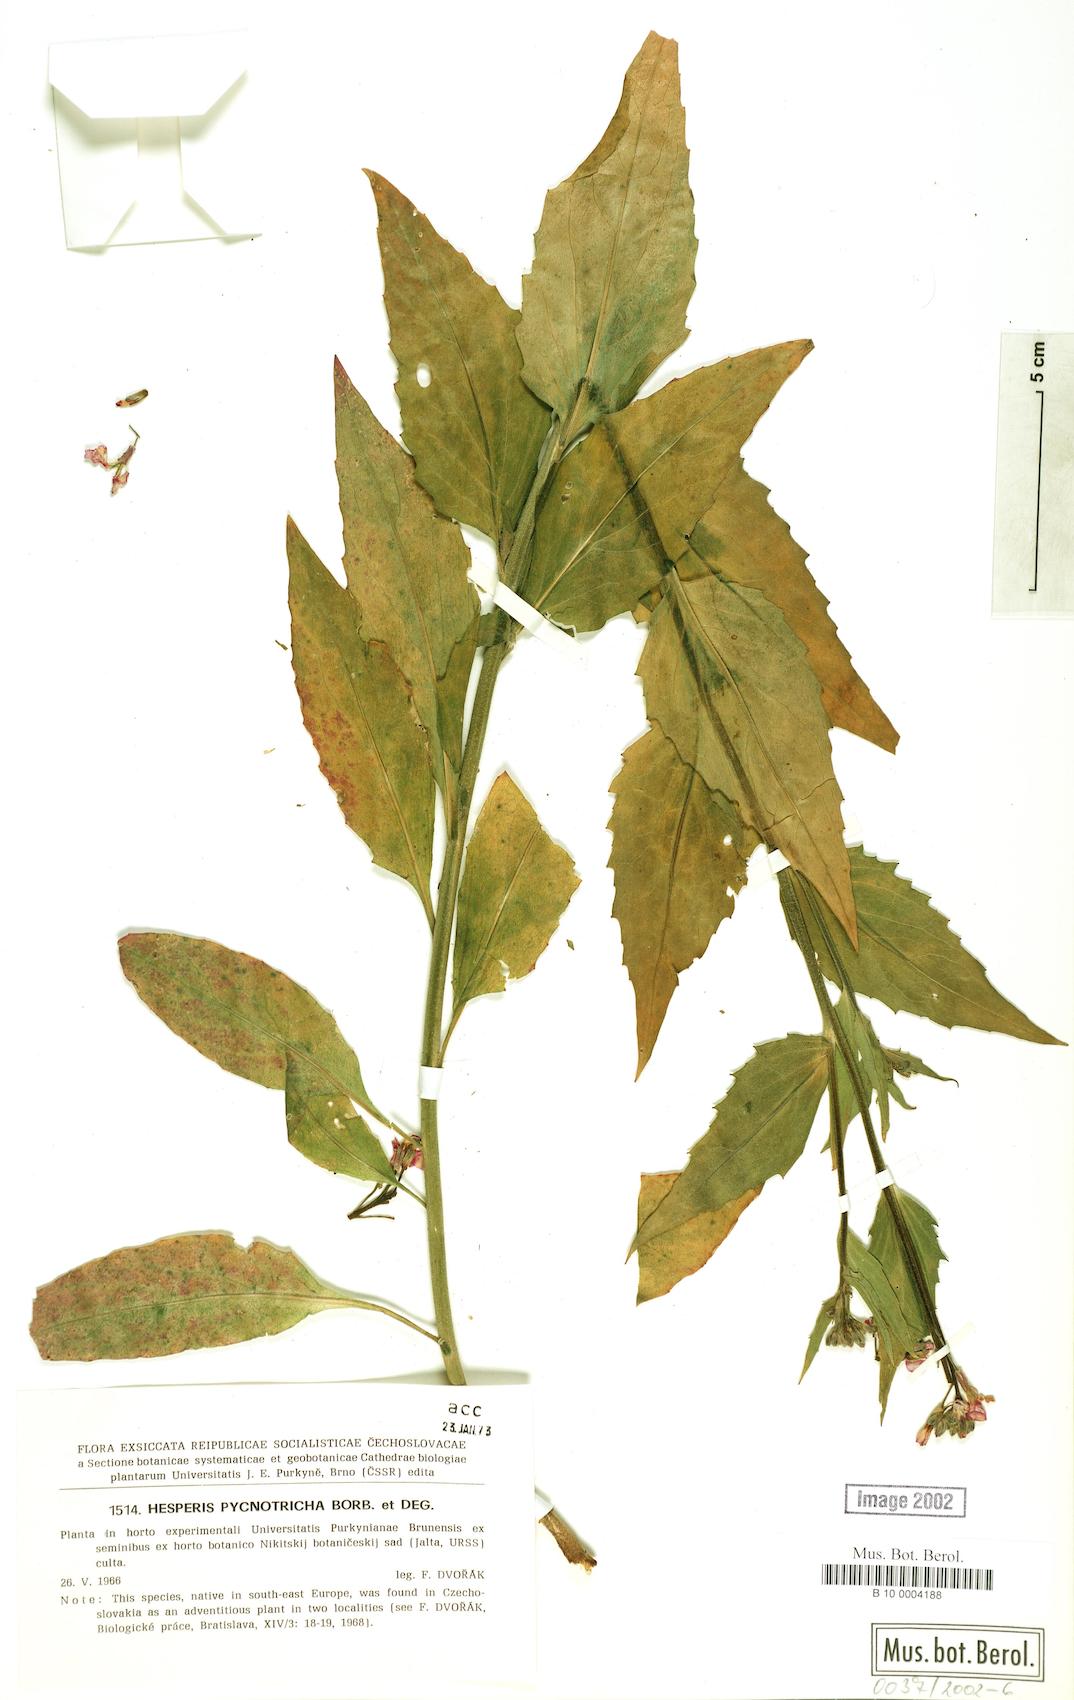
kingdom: Plantae
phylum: Tracheophyta
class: Magnoliopsida
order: Brassicales
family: Brassicaceae
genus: Hesperis
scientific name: Hesperis pycnotricha
